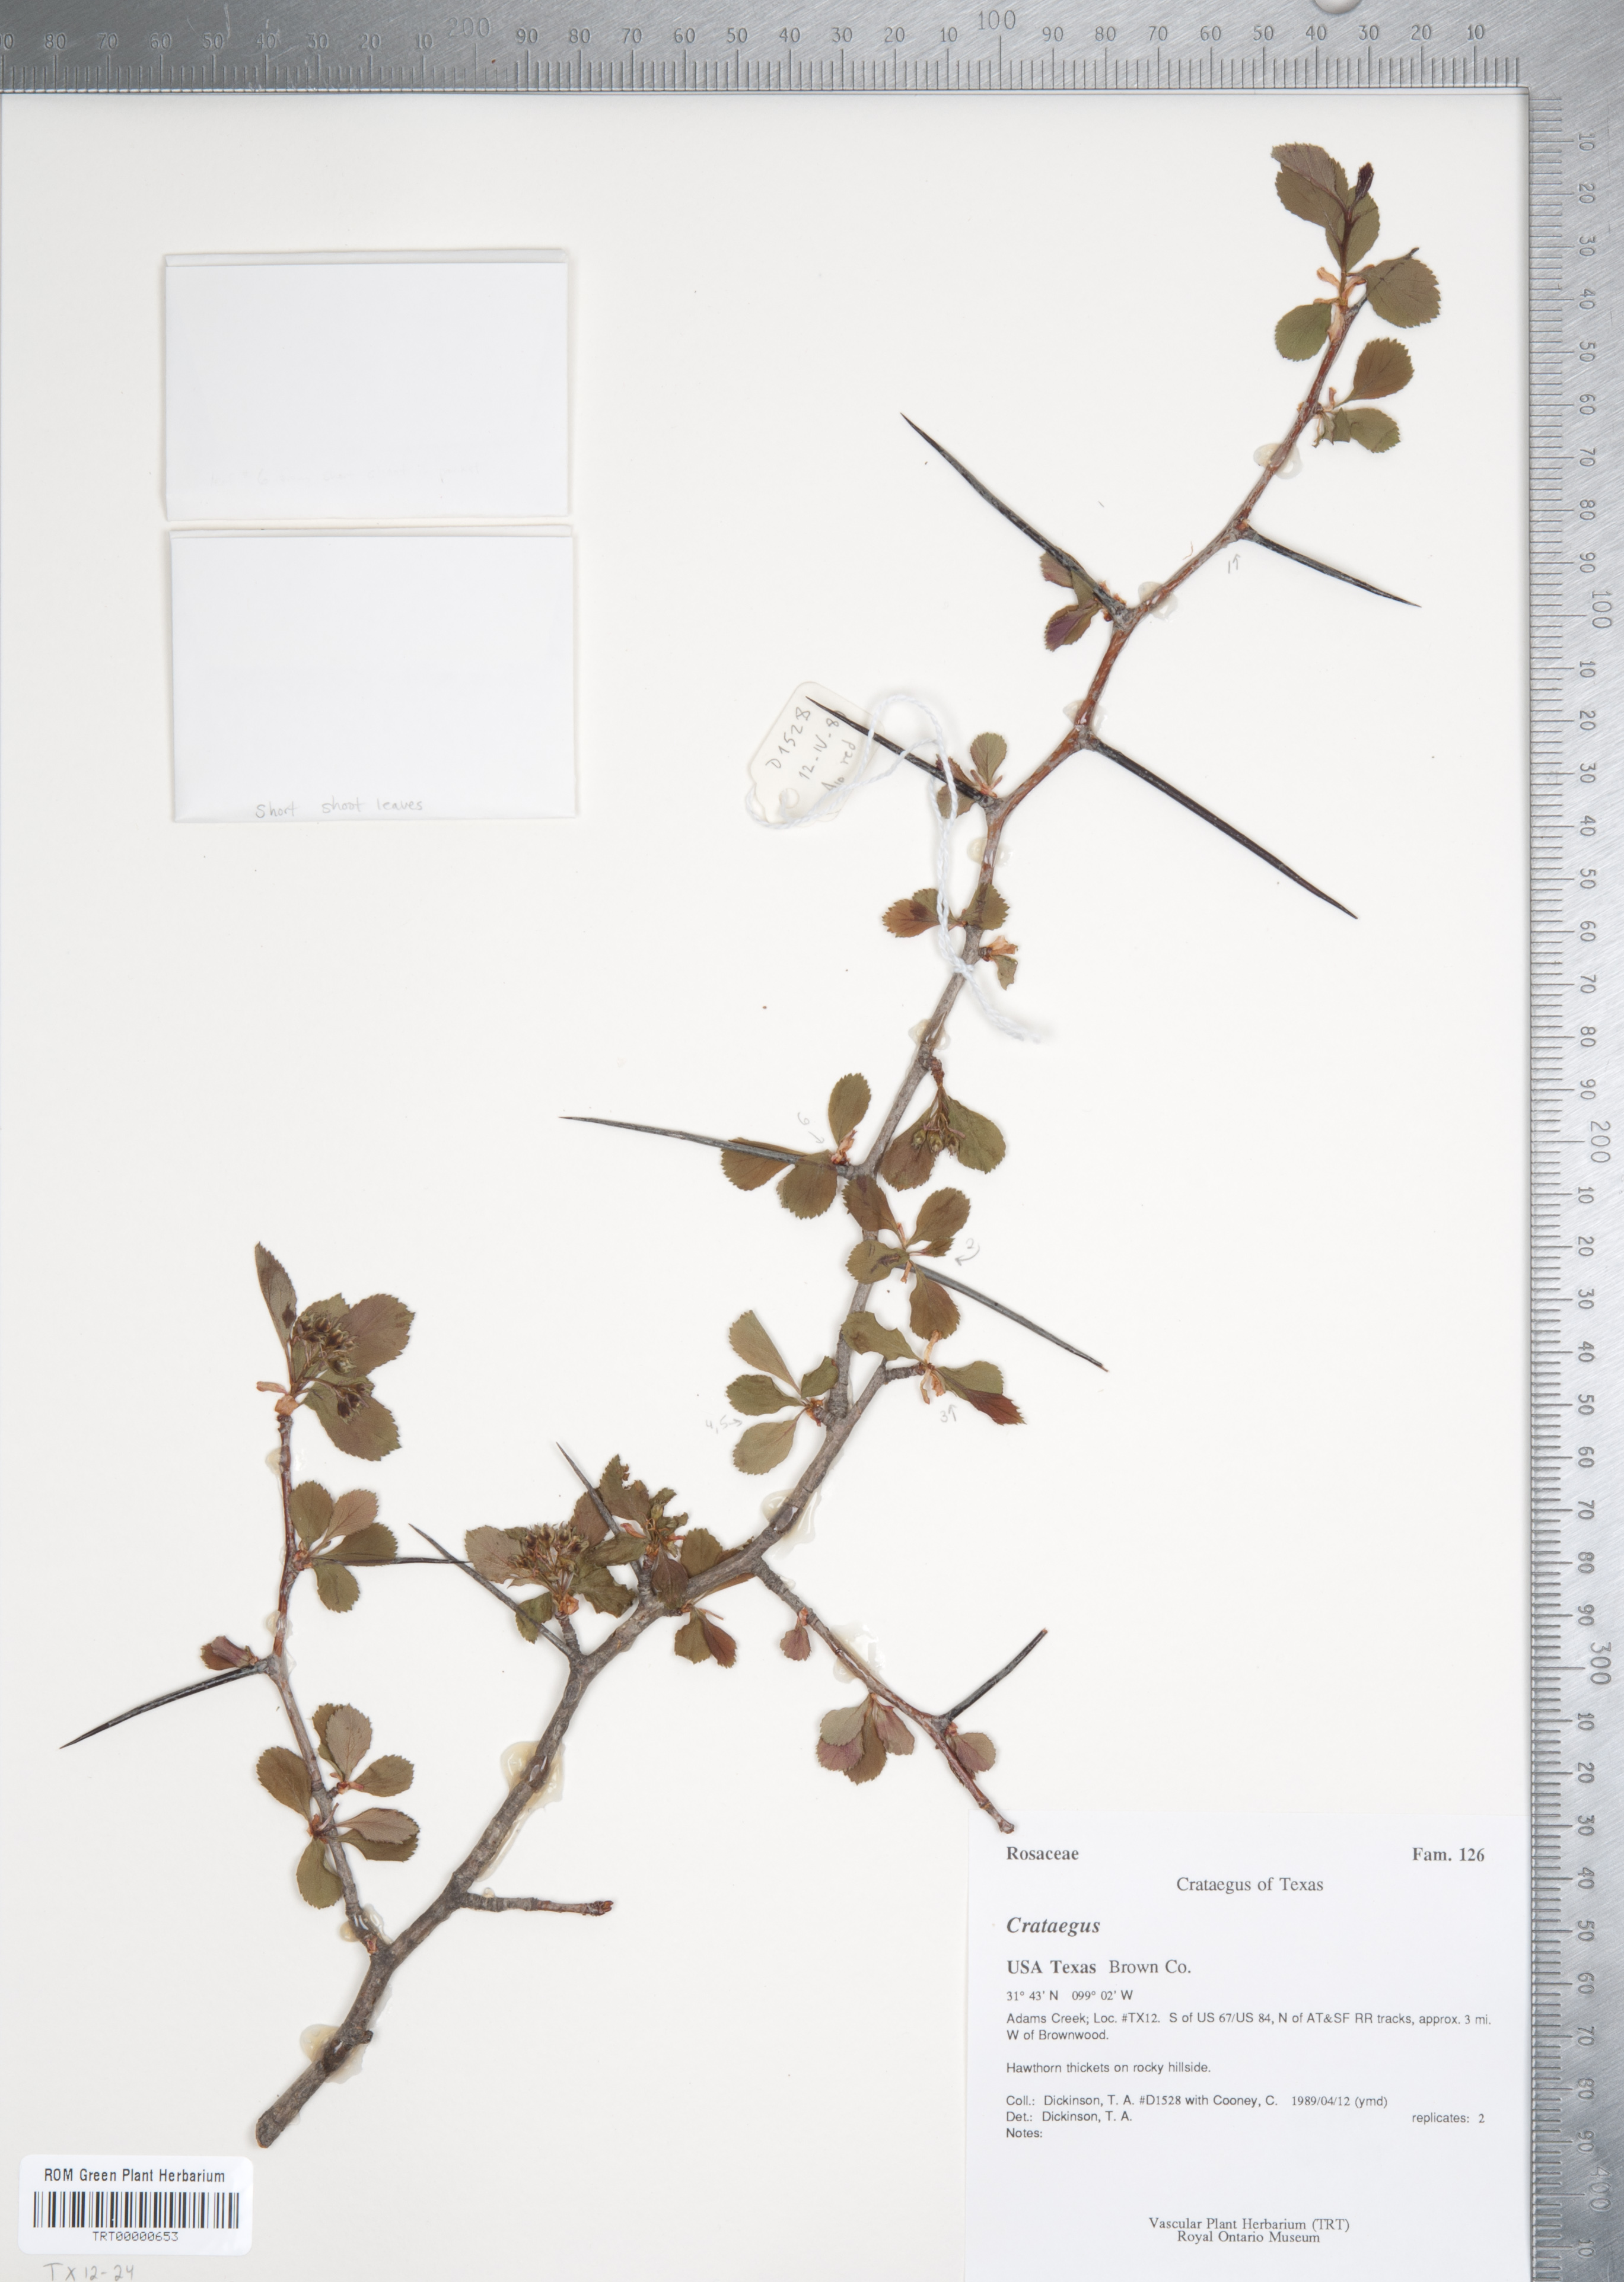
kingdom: Plantae
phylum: Tracheophyta
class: Magnoliopsida
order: Rosales
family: Rosaceae
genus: Crataegus
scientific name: Crataegus crus-galli
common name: Cockspurthorn
